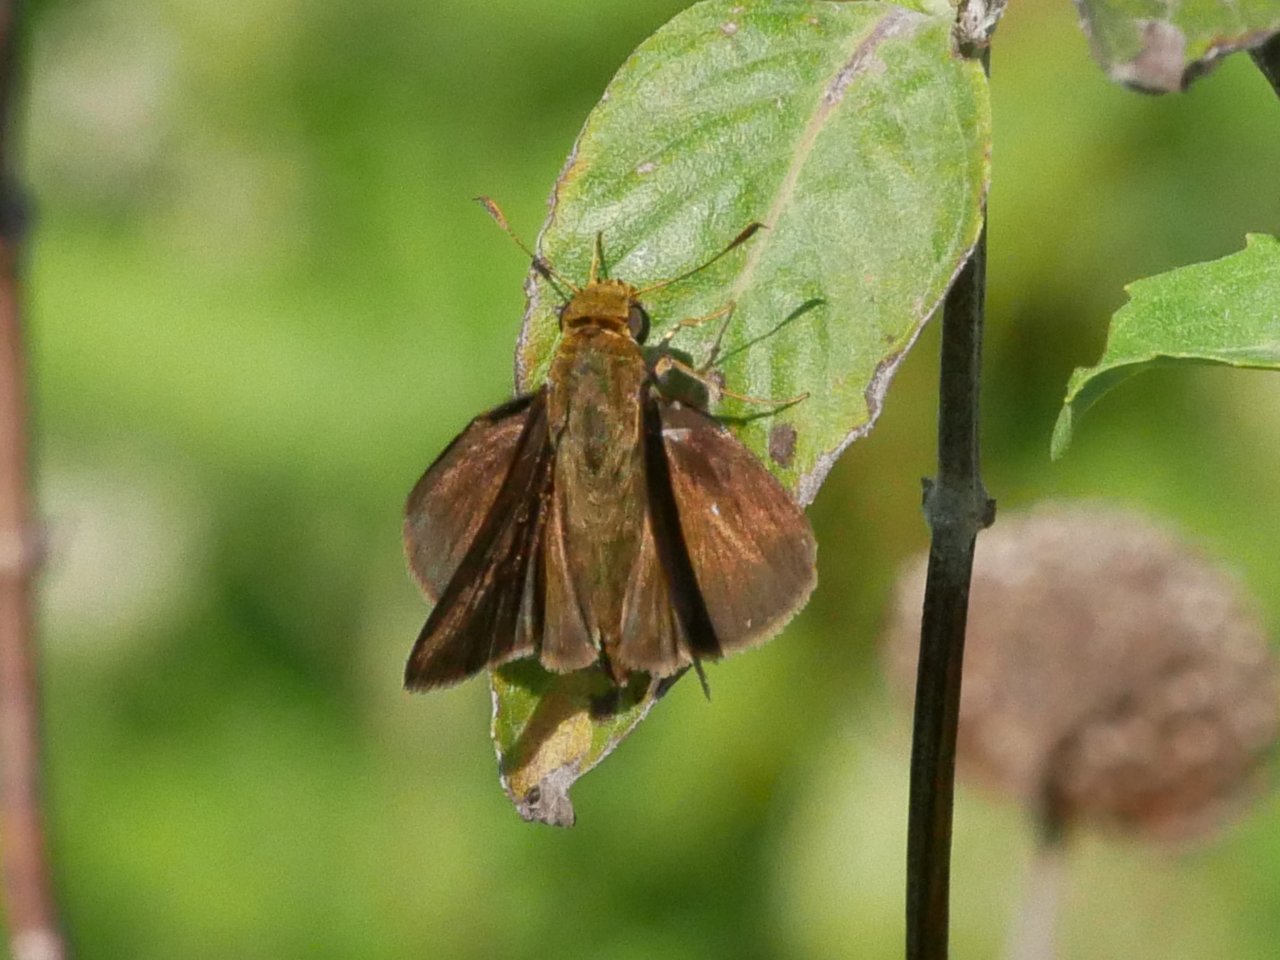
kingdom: Animalia
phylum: Arthropoda
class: Insecta
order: Lepidoptera
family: Hesperiidae
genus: Euphyes
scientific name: Euphyes vestris
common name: Dun Skipper
